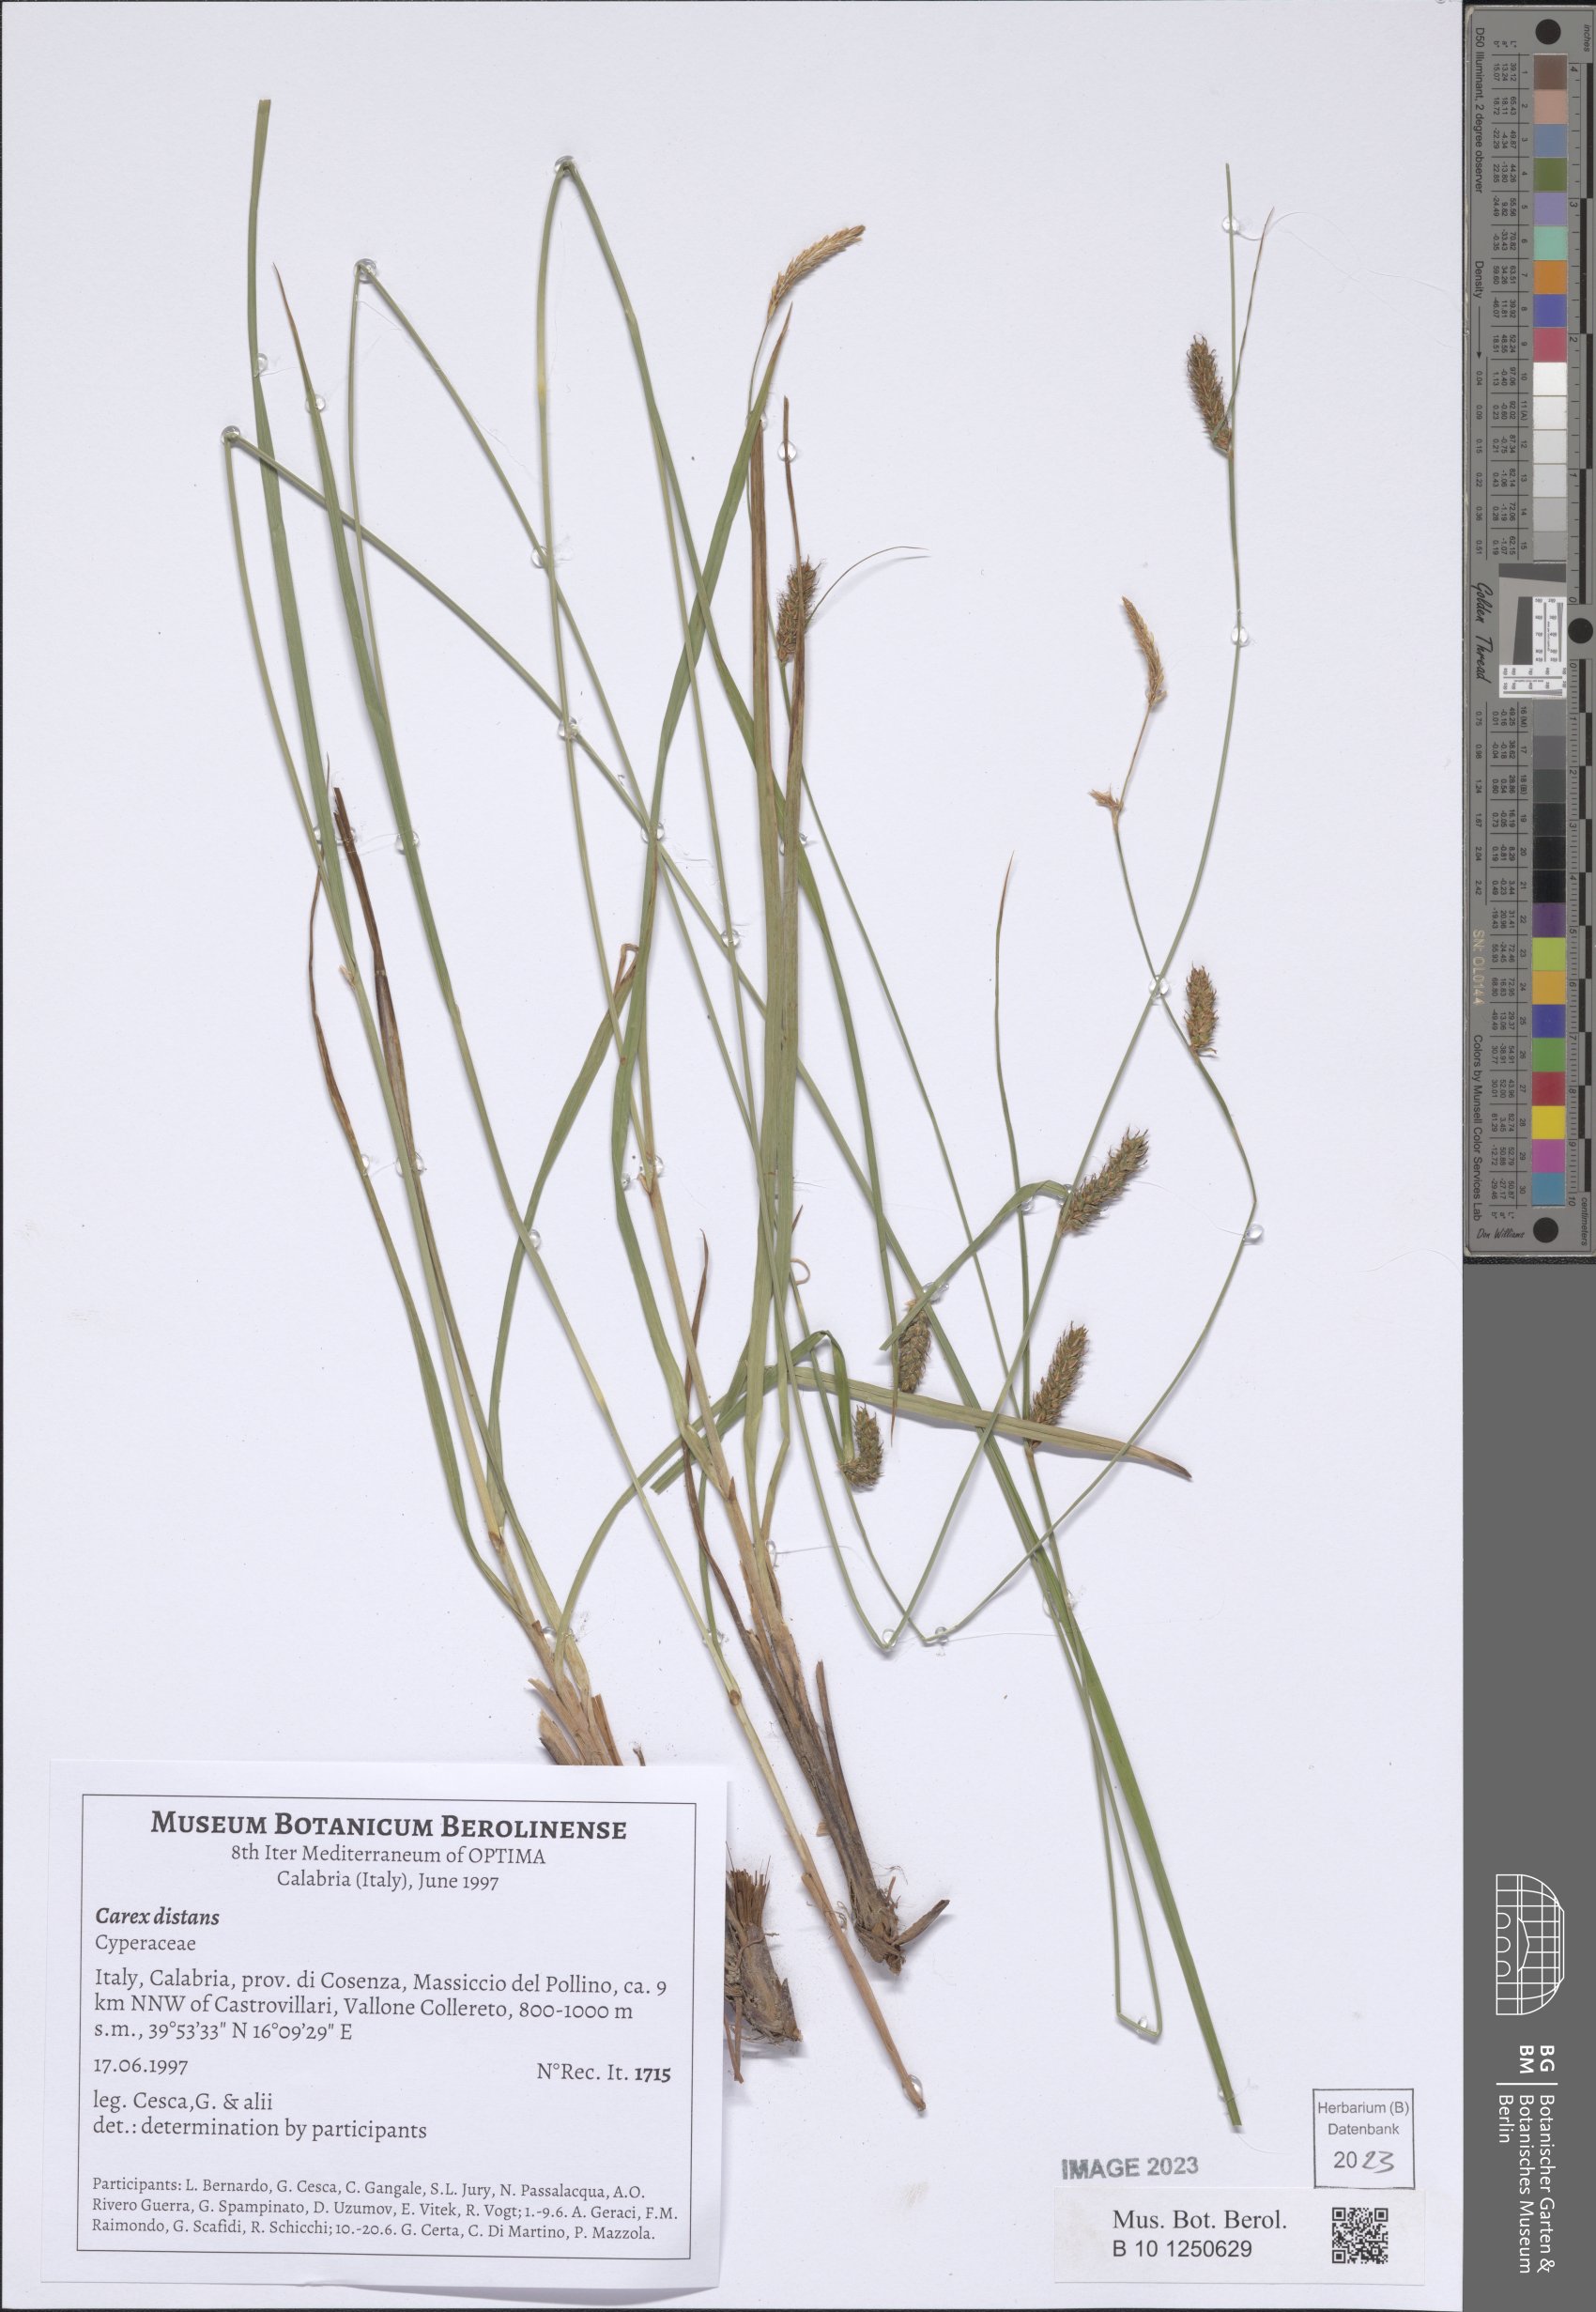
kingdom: Plantae
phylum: Tracheophyta
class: Liliopsida
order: Poales
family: Cyperaceae
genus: Carex
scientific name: Carex distans
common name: Distant sedge
